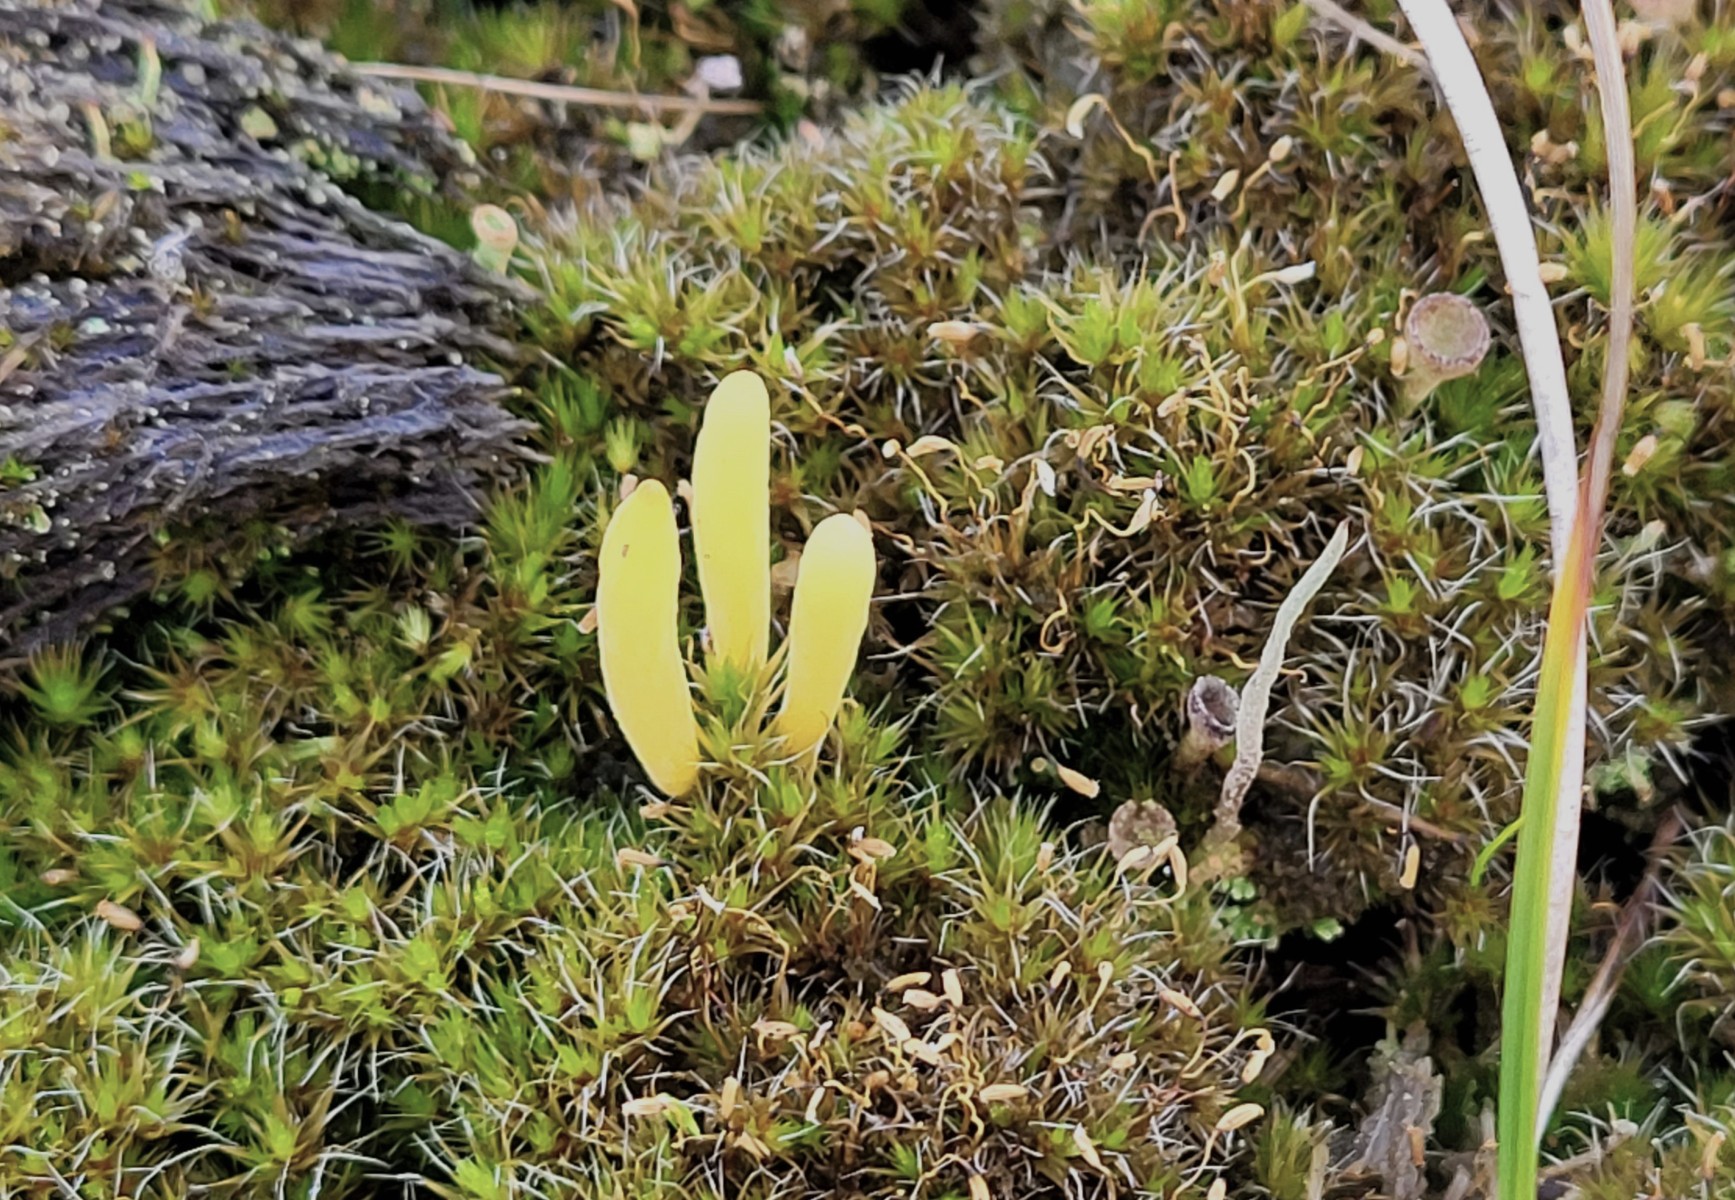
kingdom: Fungi
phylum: Basidiomycota
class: Agaricomycetes
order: Agaricales
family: Clavariaceae
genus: Clavaria
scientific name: Clavaria argillacea
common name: lerfarvet køllesvamp
